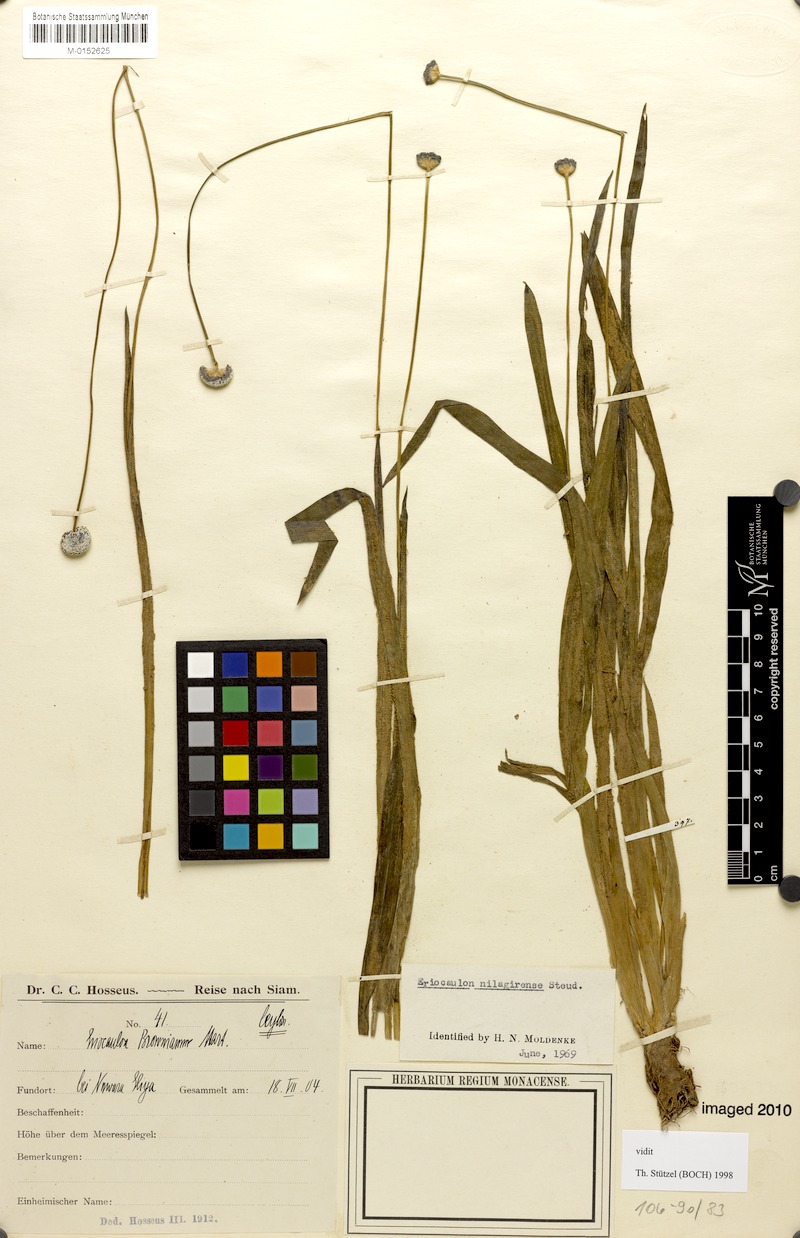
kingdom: Plantae
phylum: Tracheophyta
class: Liliopsida
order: Poales
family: Eriocaulaceae
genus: Eriocaulon
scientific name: Eriocaulon brownianum
